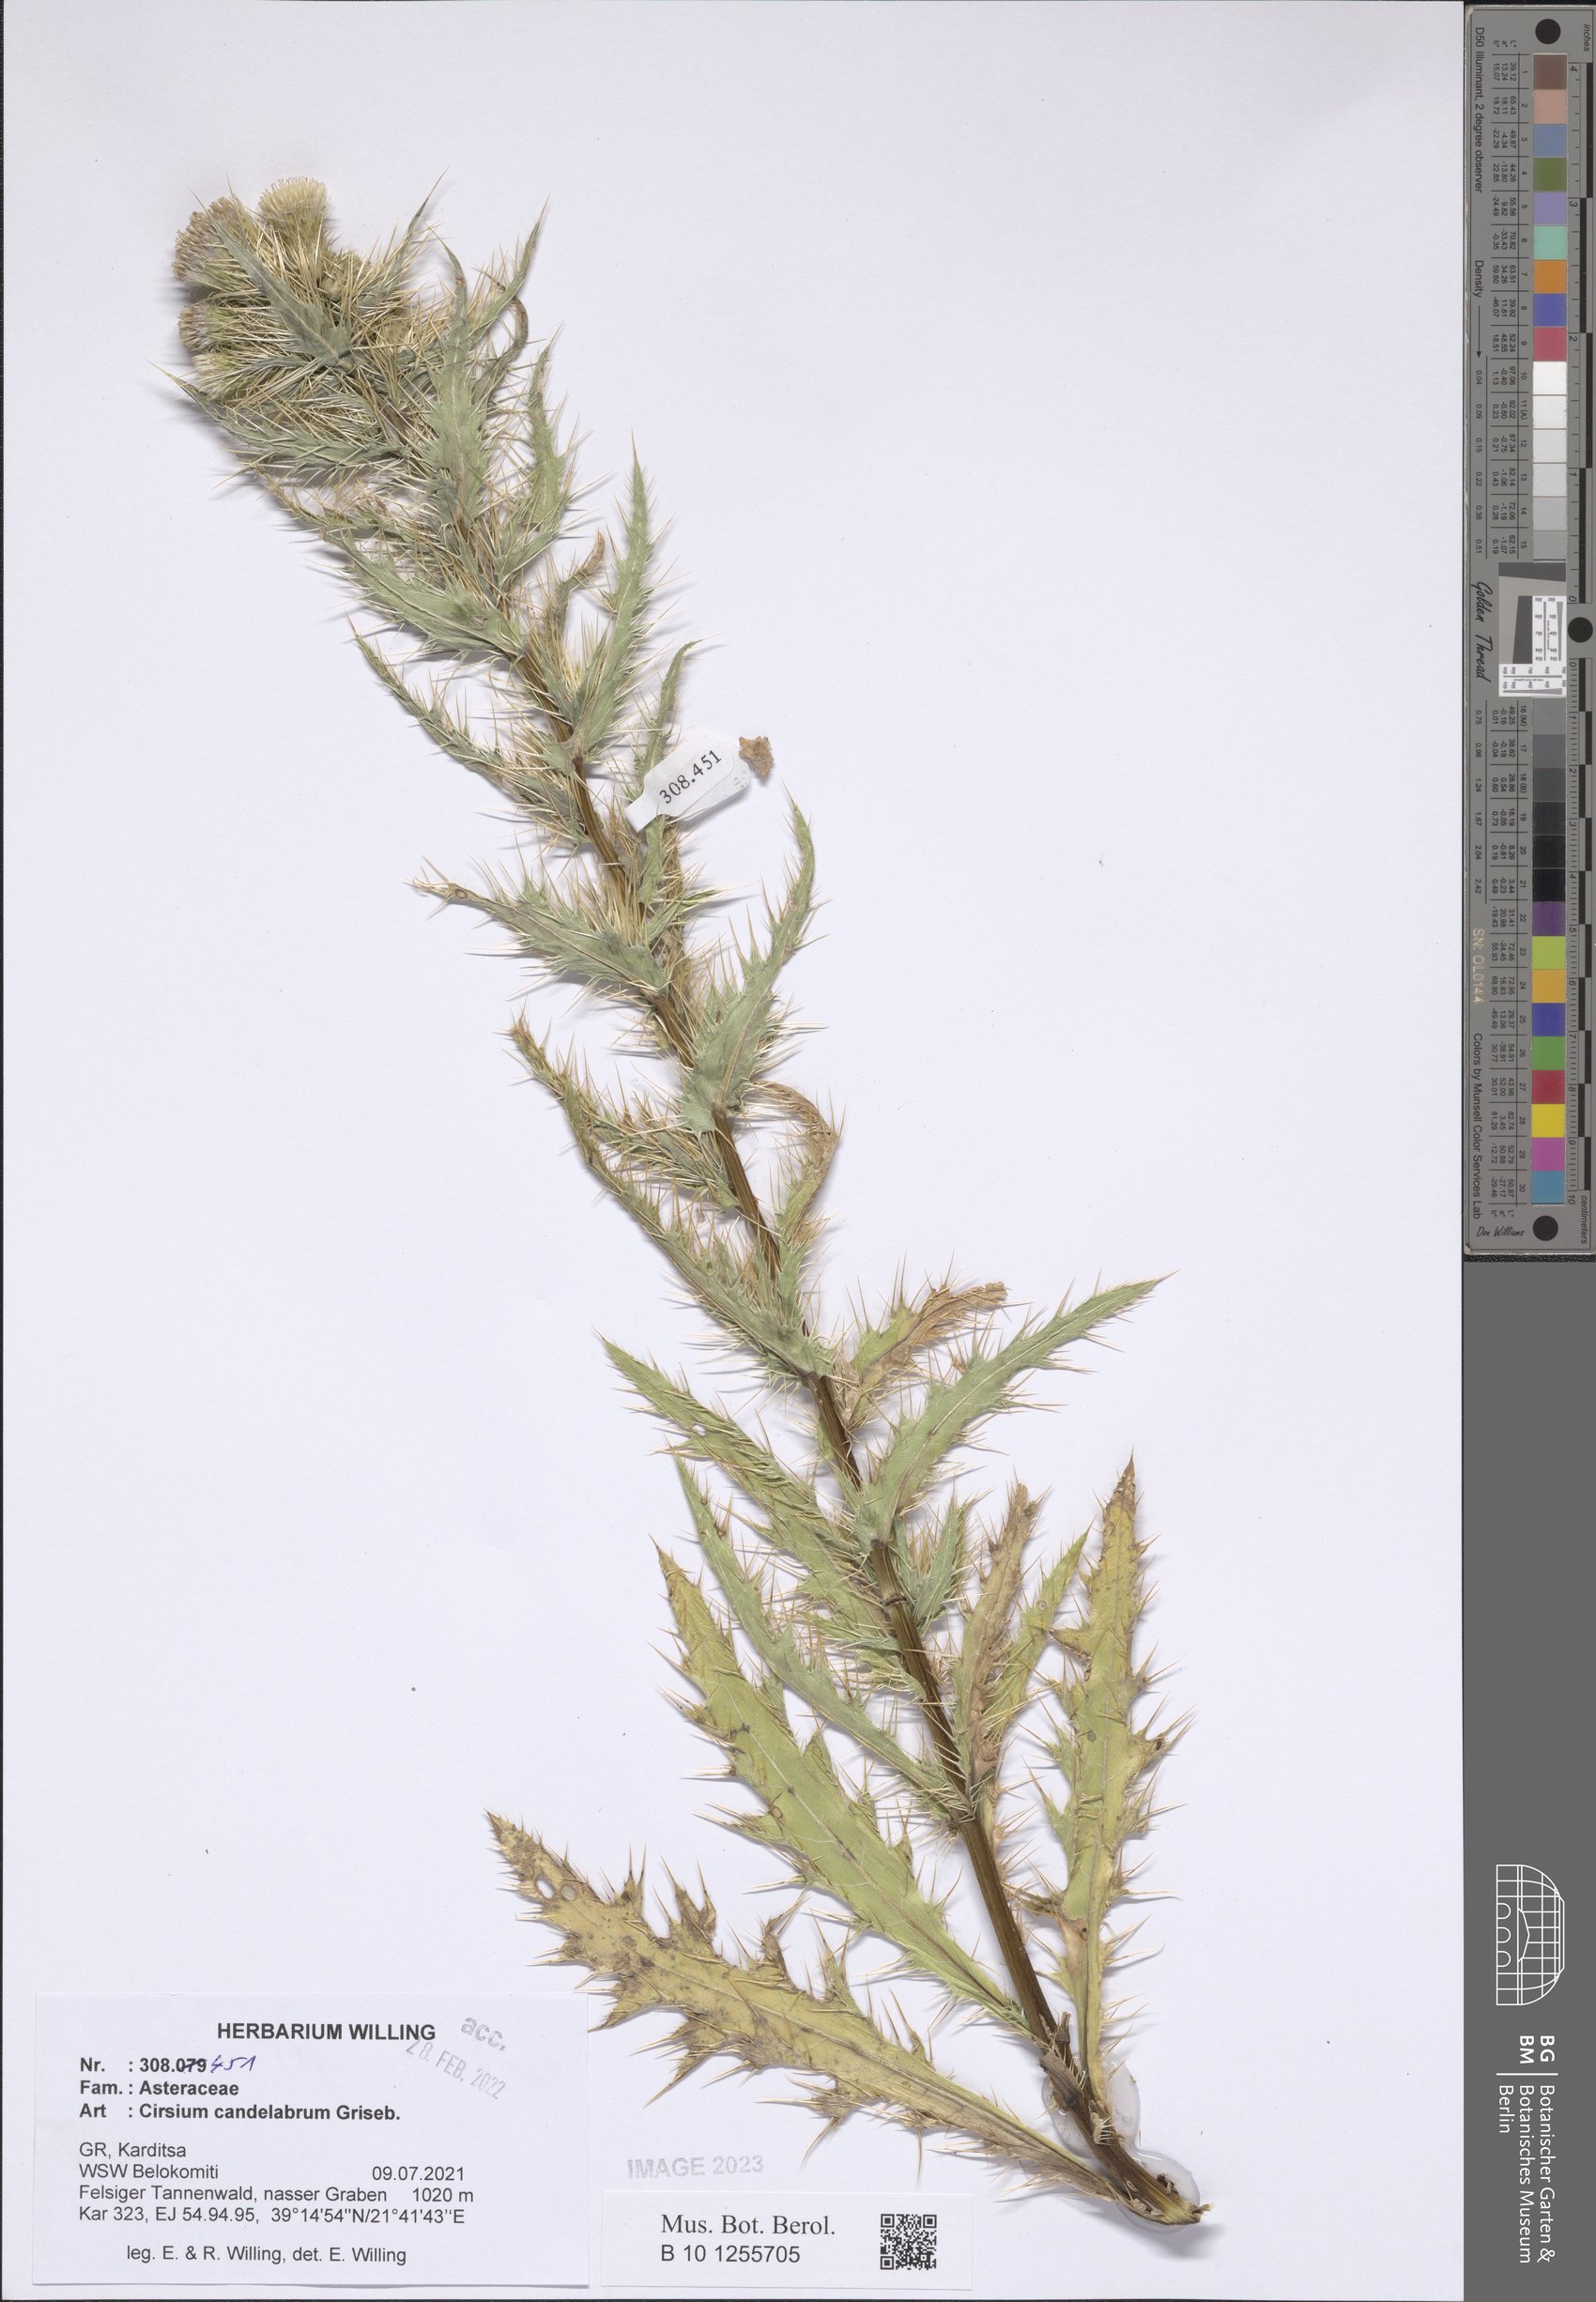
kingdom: Plantae
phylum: Tracheophyta
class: Magnoliopsida
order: Asterales
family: Asteraceae
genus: Cirsium
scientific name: Cirsium candelabrum
